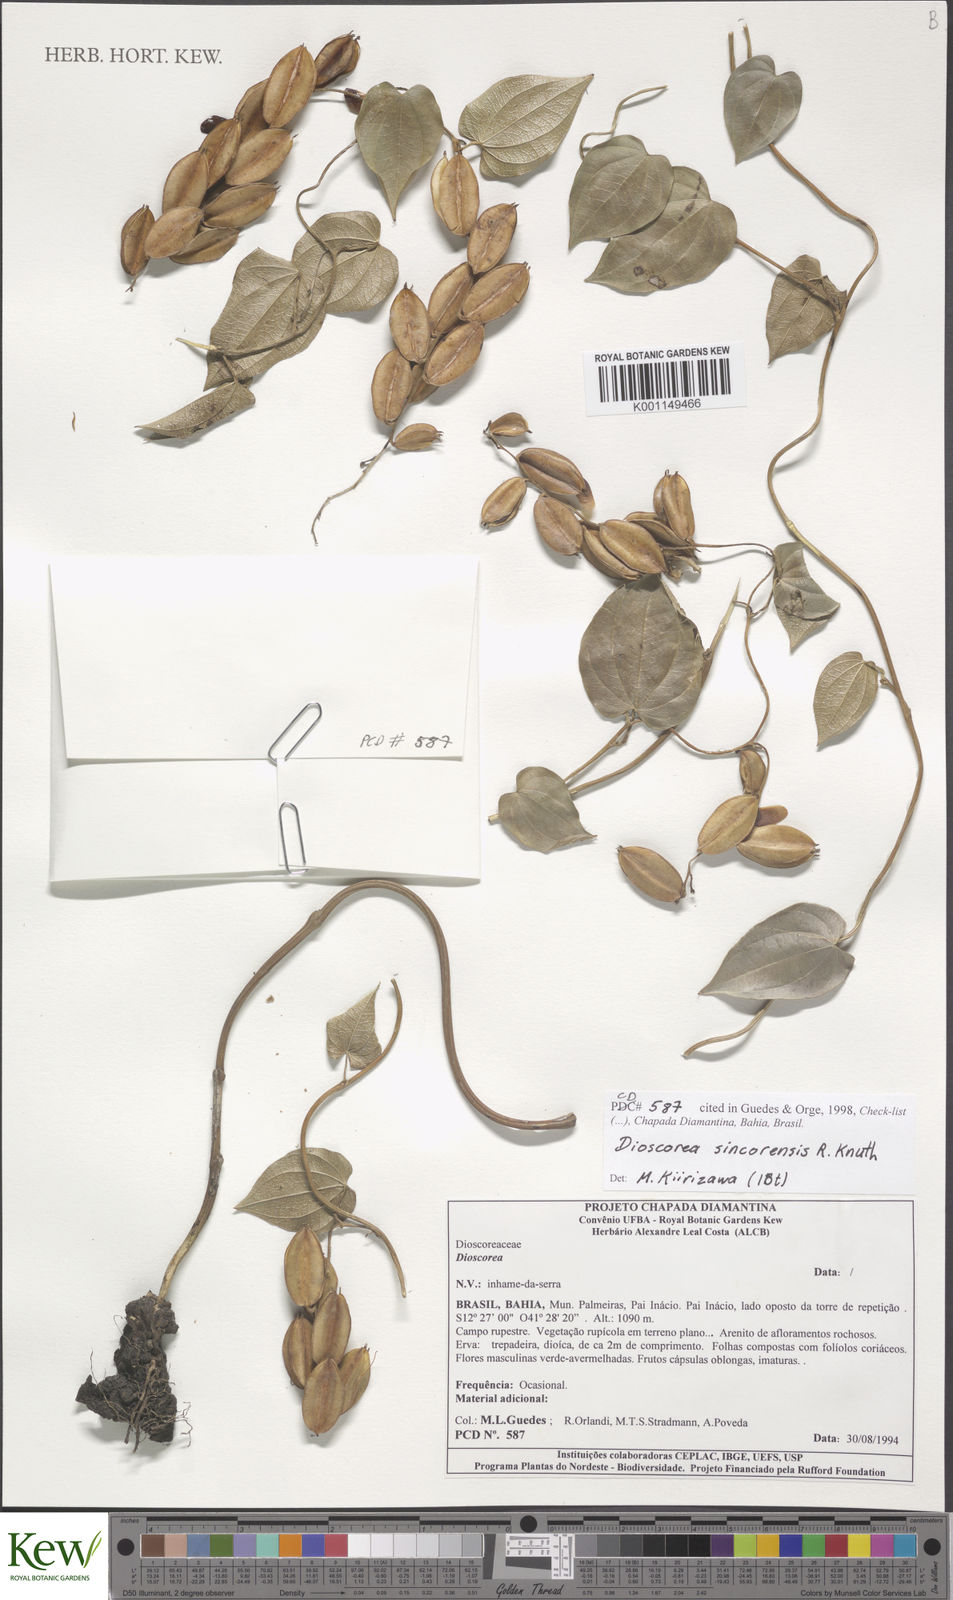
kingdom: Plantae
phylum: Tracheophyta
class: Liliopsida
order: Dioscoreales
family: Dioscoreaceae
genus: Dioscorea
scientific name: Dioscorea sincorensis
